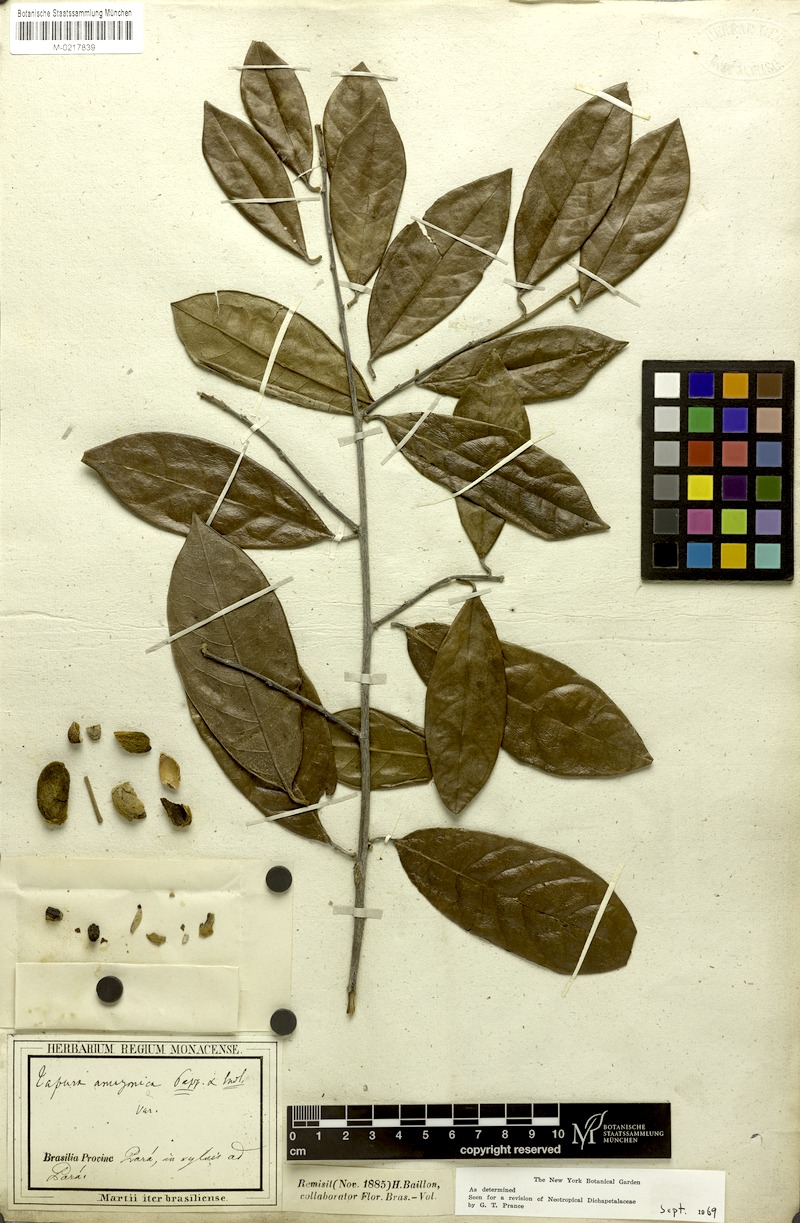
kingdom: Plantae
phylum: Tracheophyta
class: Magnoliopsida
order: Malpighiales
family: Dichapetalaceae
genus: Tapura
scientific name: Tapura amazonica
